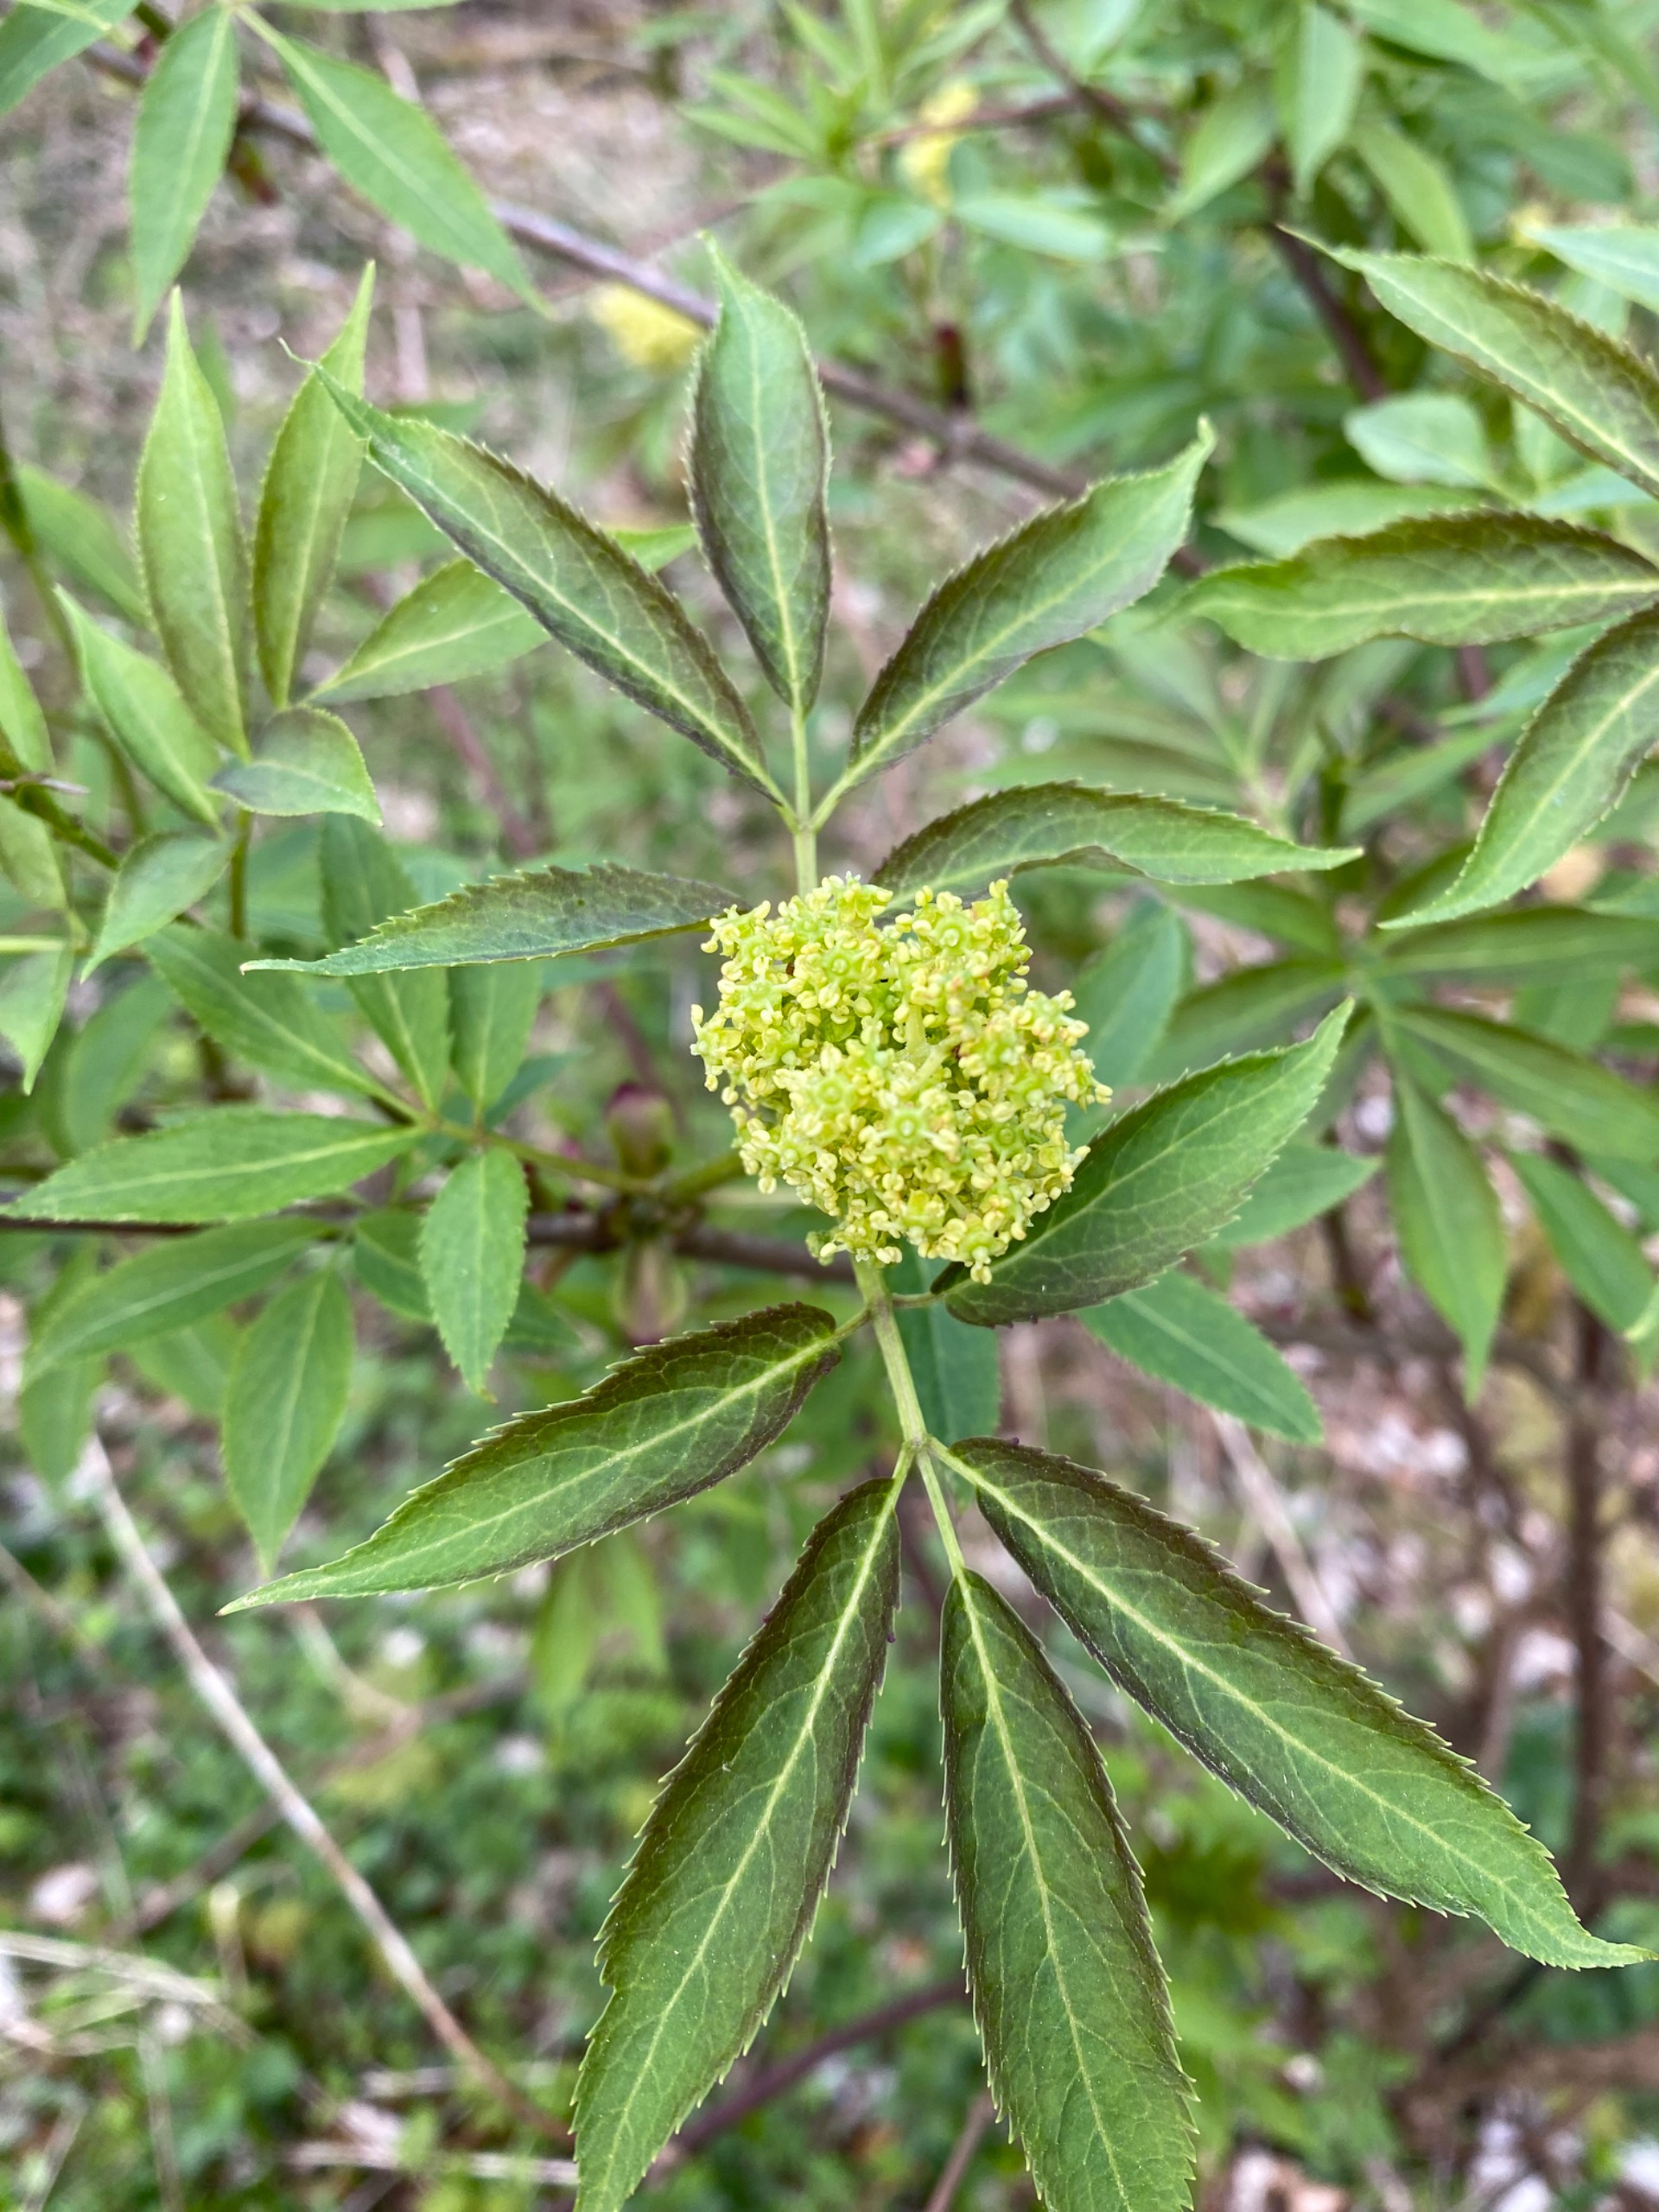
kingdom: Plantae
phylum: Tracheophyta
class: Magnoliopsida
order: Dipsacales
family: Viburnaceae
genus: Sambucus
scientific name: Sambucus racemosa
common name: Drue-hyld
